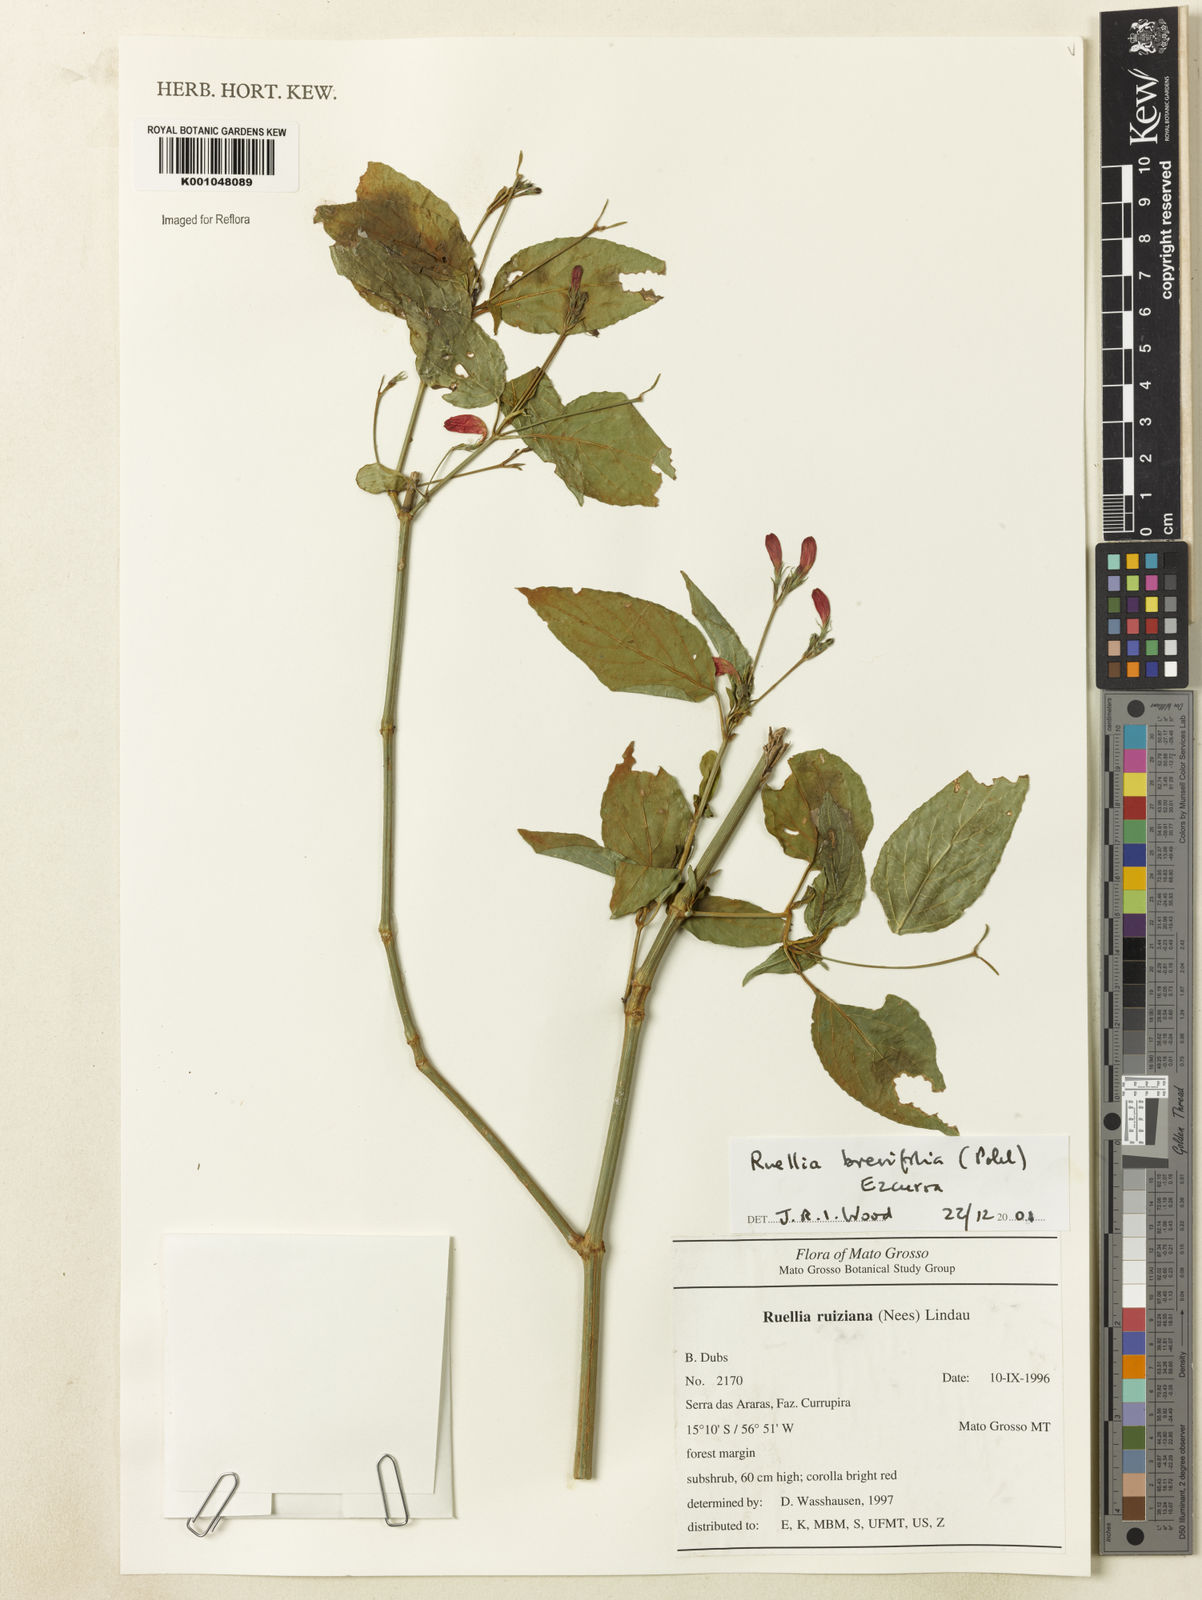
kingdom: Plantae
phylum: Tracheophyta
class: Magnoliopsida
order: Lamiales
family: Acanthaceae
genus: Ruellia
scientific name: Ruellia brevifolia
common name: Tropical wild petunia
